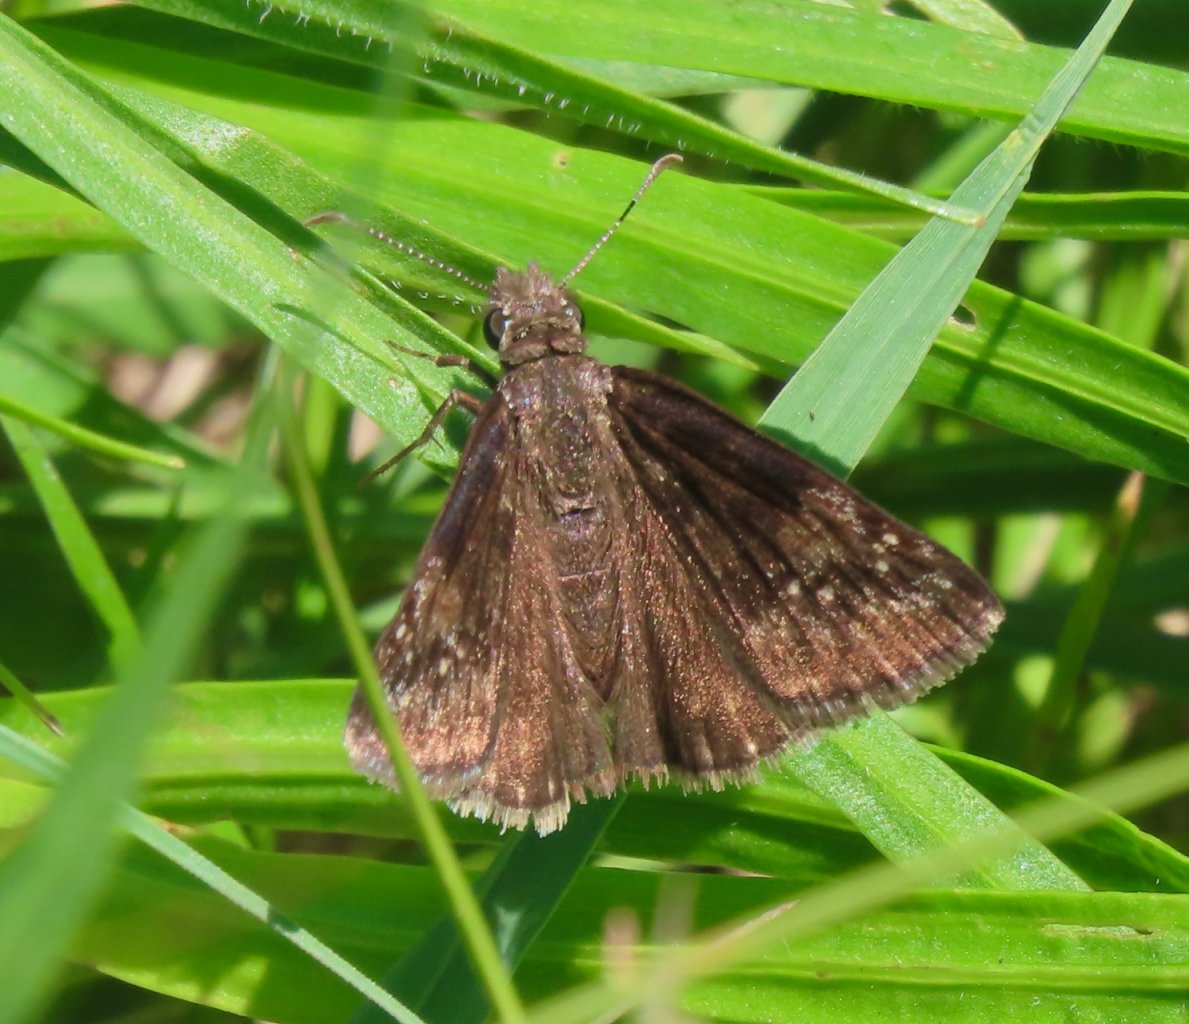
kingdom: Animalia
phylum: Arthropoda
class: Insecta
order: Lepidoptera
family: Hesperiidae
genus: Gesta
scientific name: Gesta
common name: Wild Indigo Duskywing
